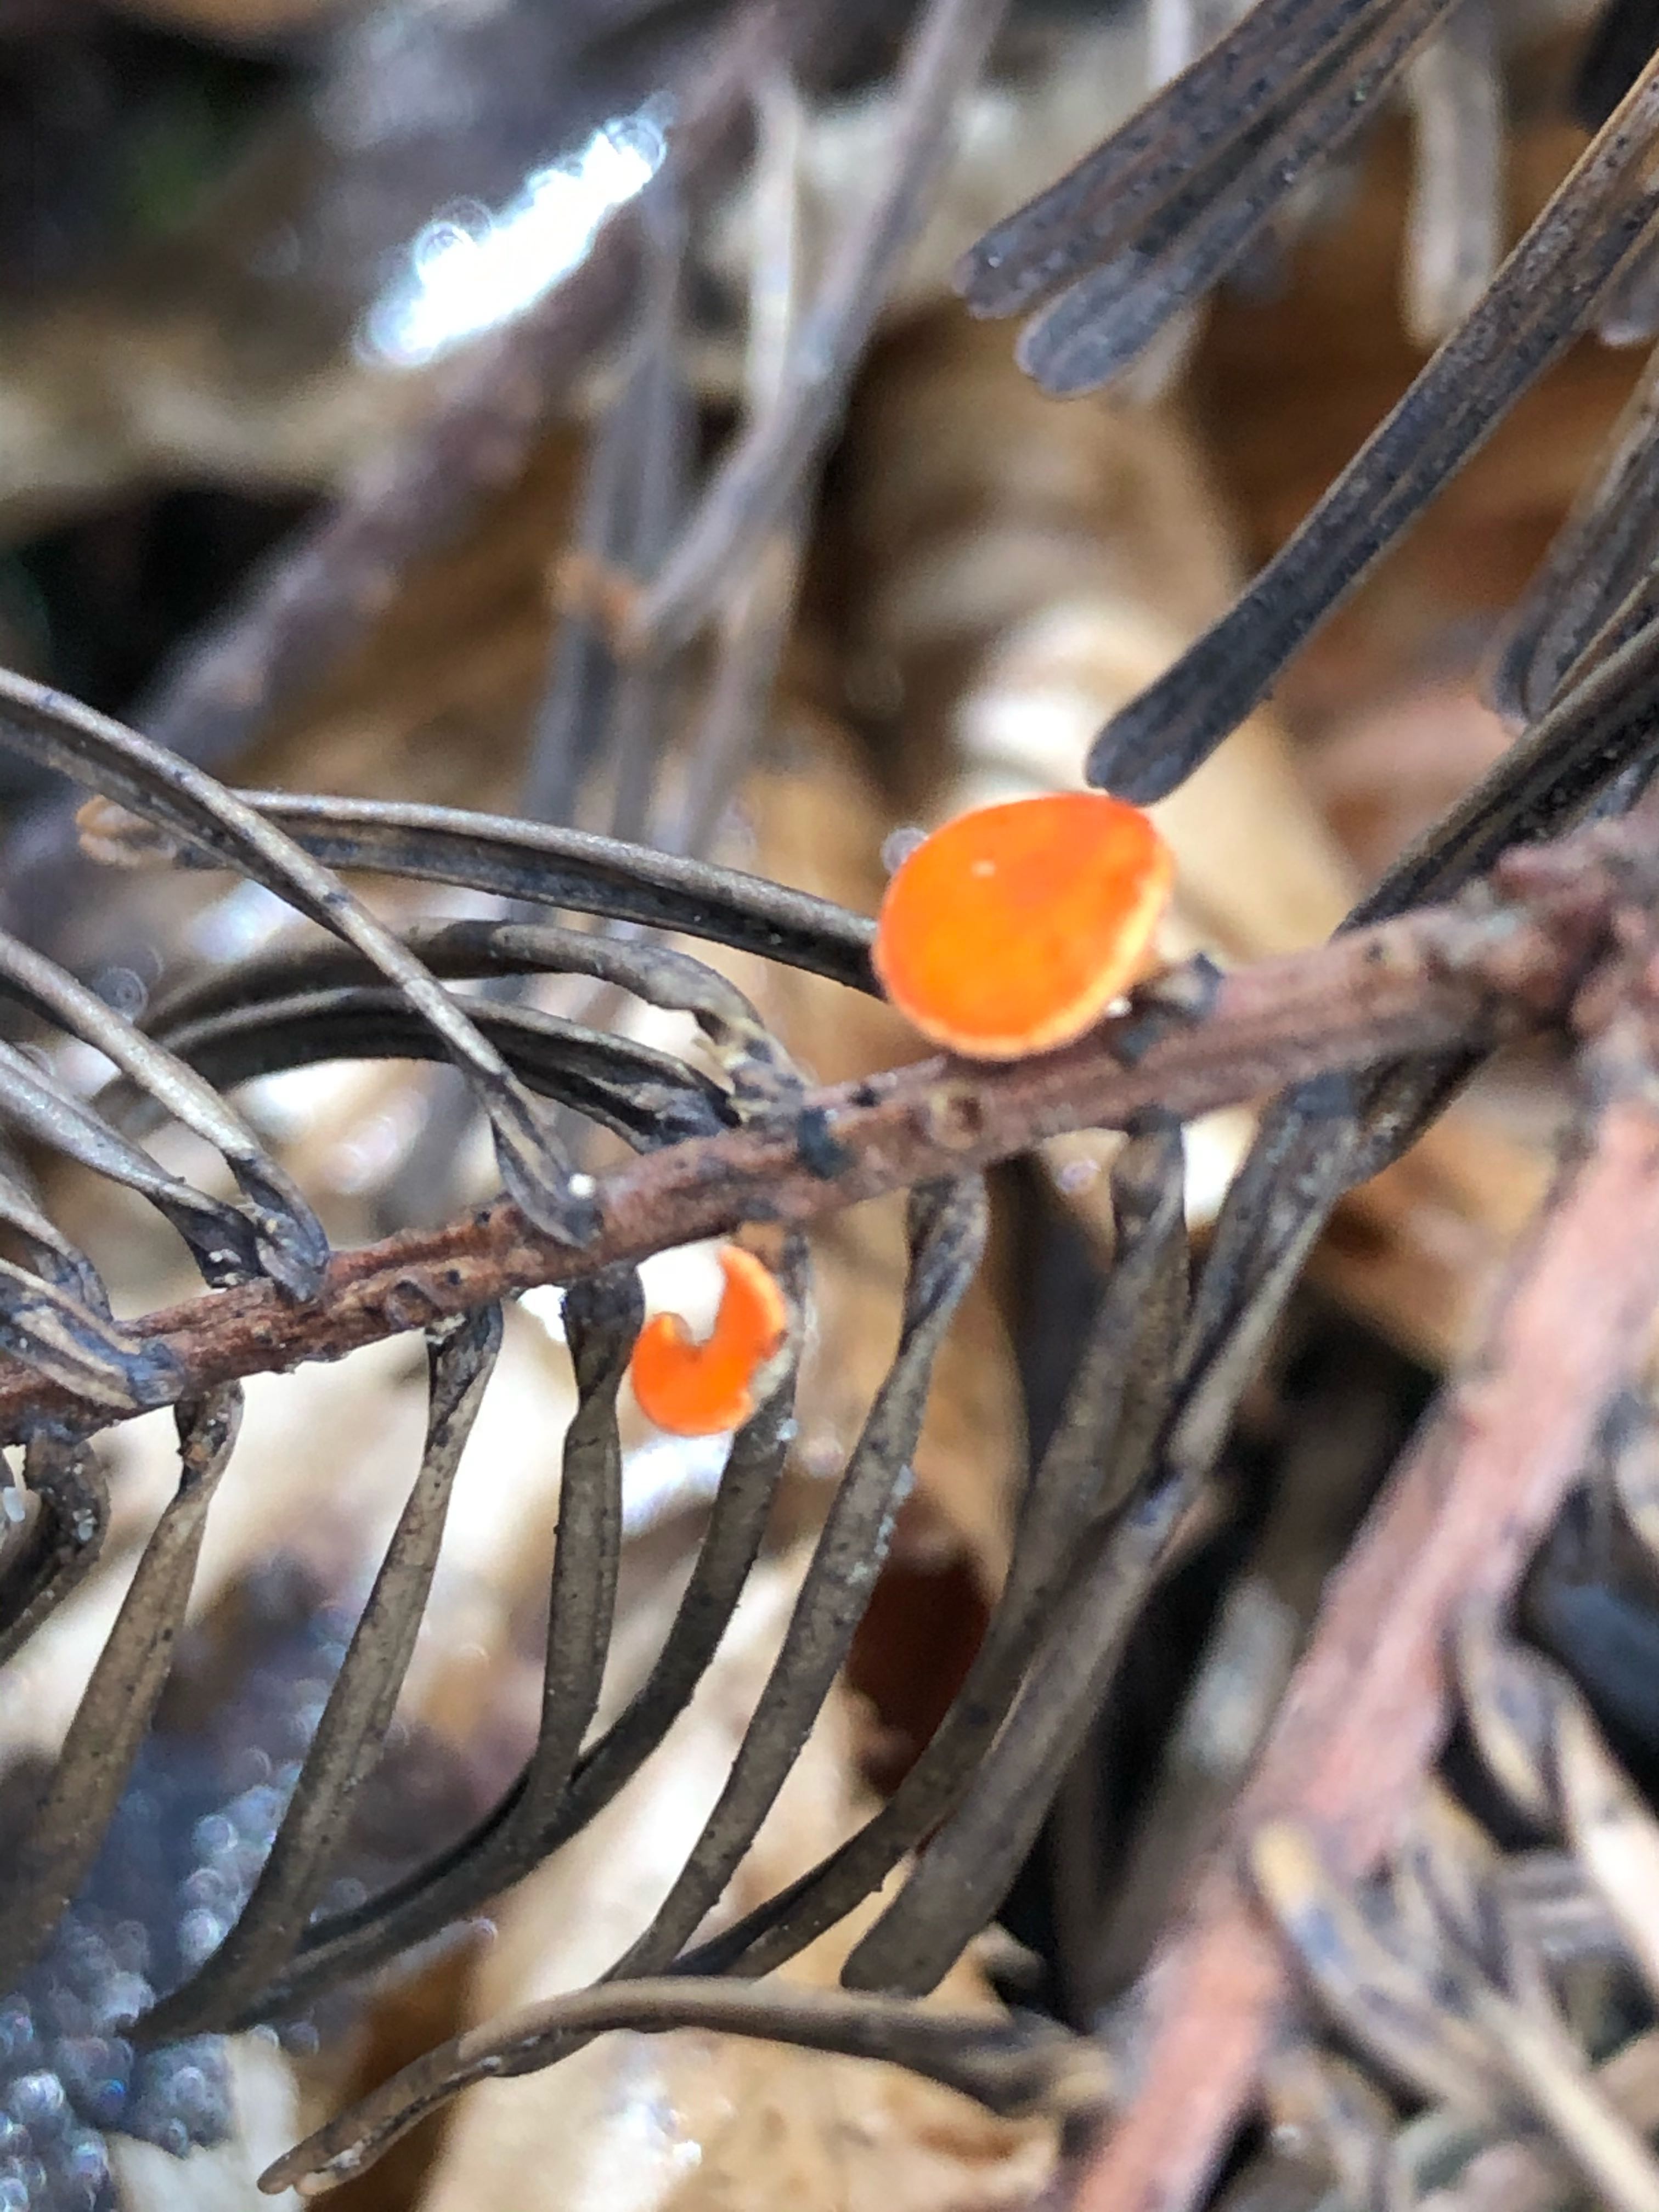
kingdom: Fungi
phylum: Ascomycota
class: Pezizomycetes
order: Pezizales
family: Sarcoscyphaceae
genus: Pithya
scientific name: Pithya vulgaris
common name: stor dukatbæger
